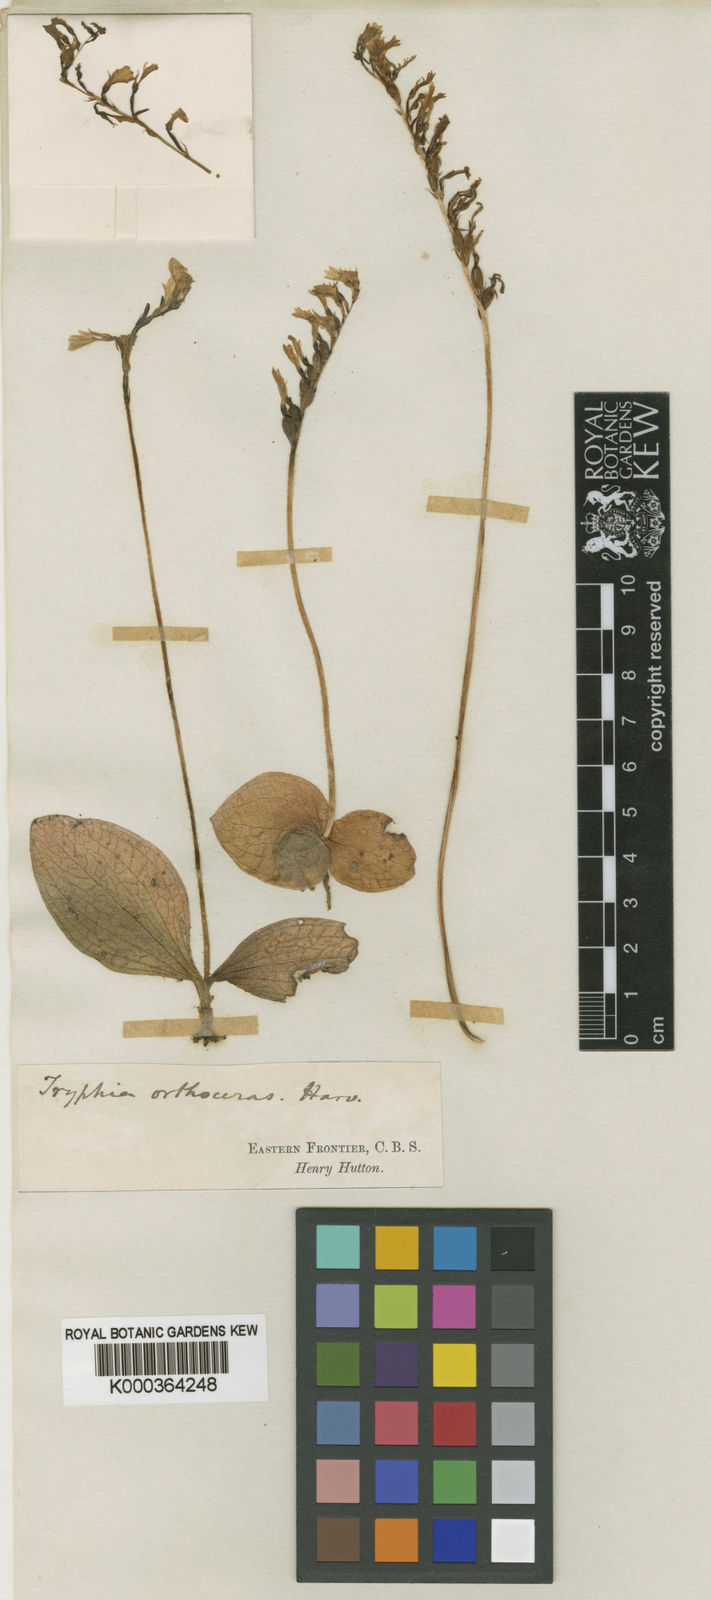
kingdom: Plantae
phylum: Tracheophyta
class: Liliopsida
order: Asparagales
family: Orchidaceae
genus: Holothrix
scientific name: Holothrix orthoceras
